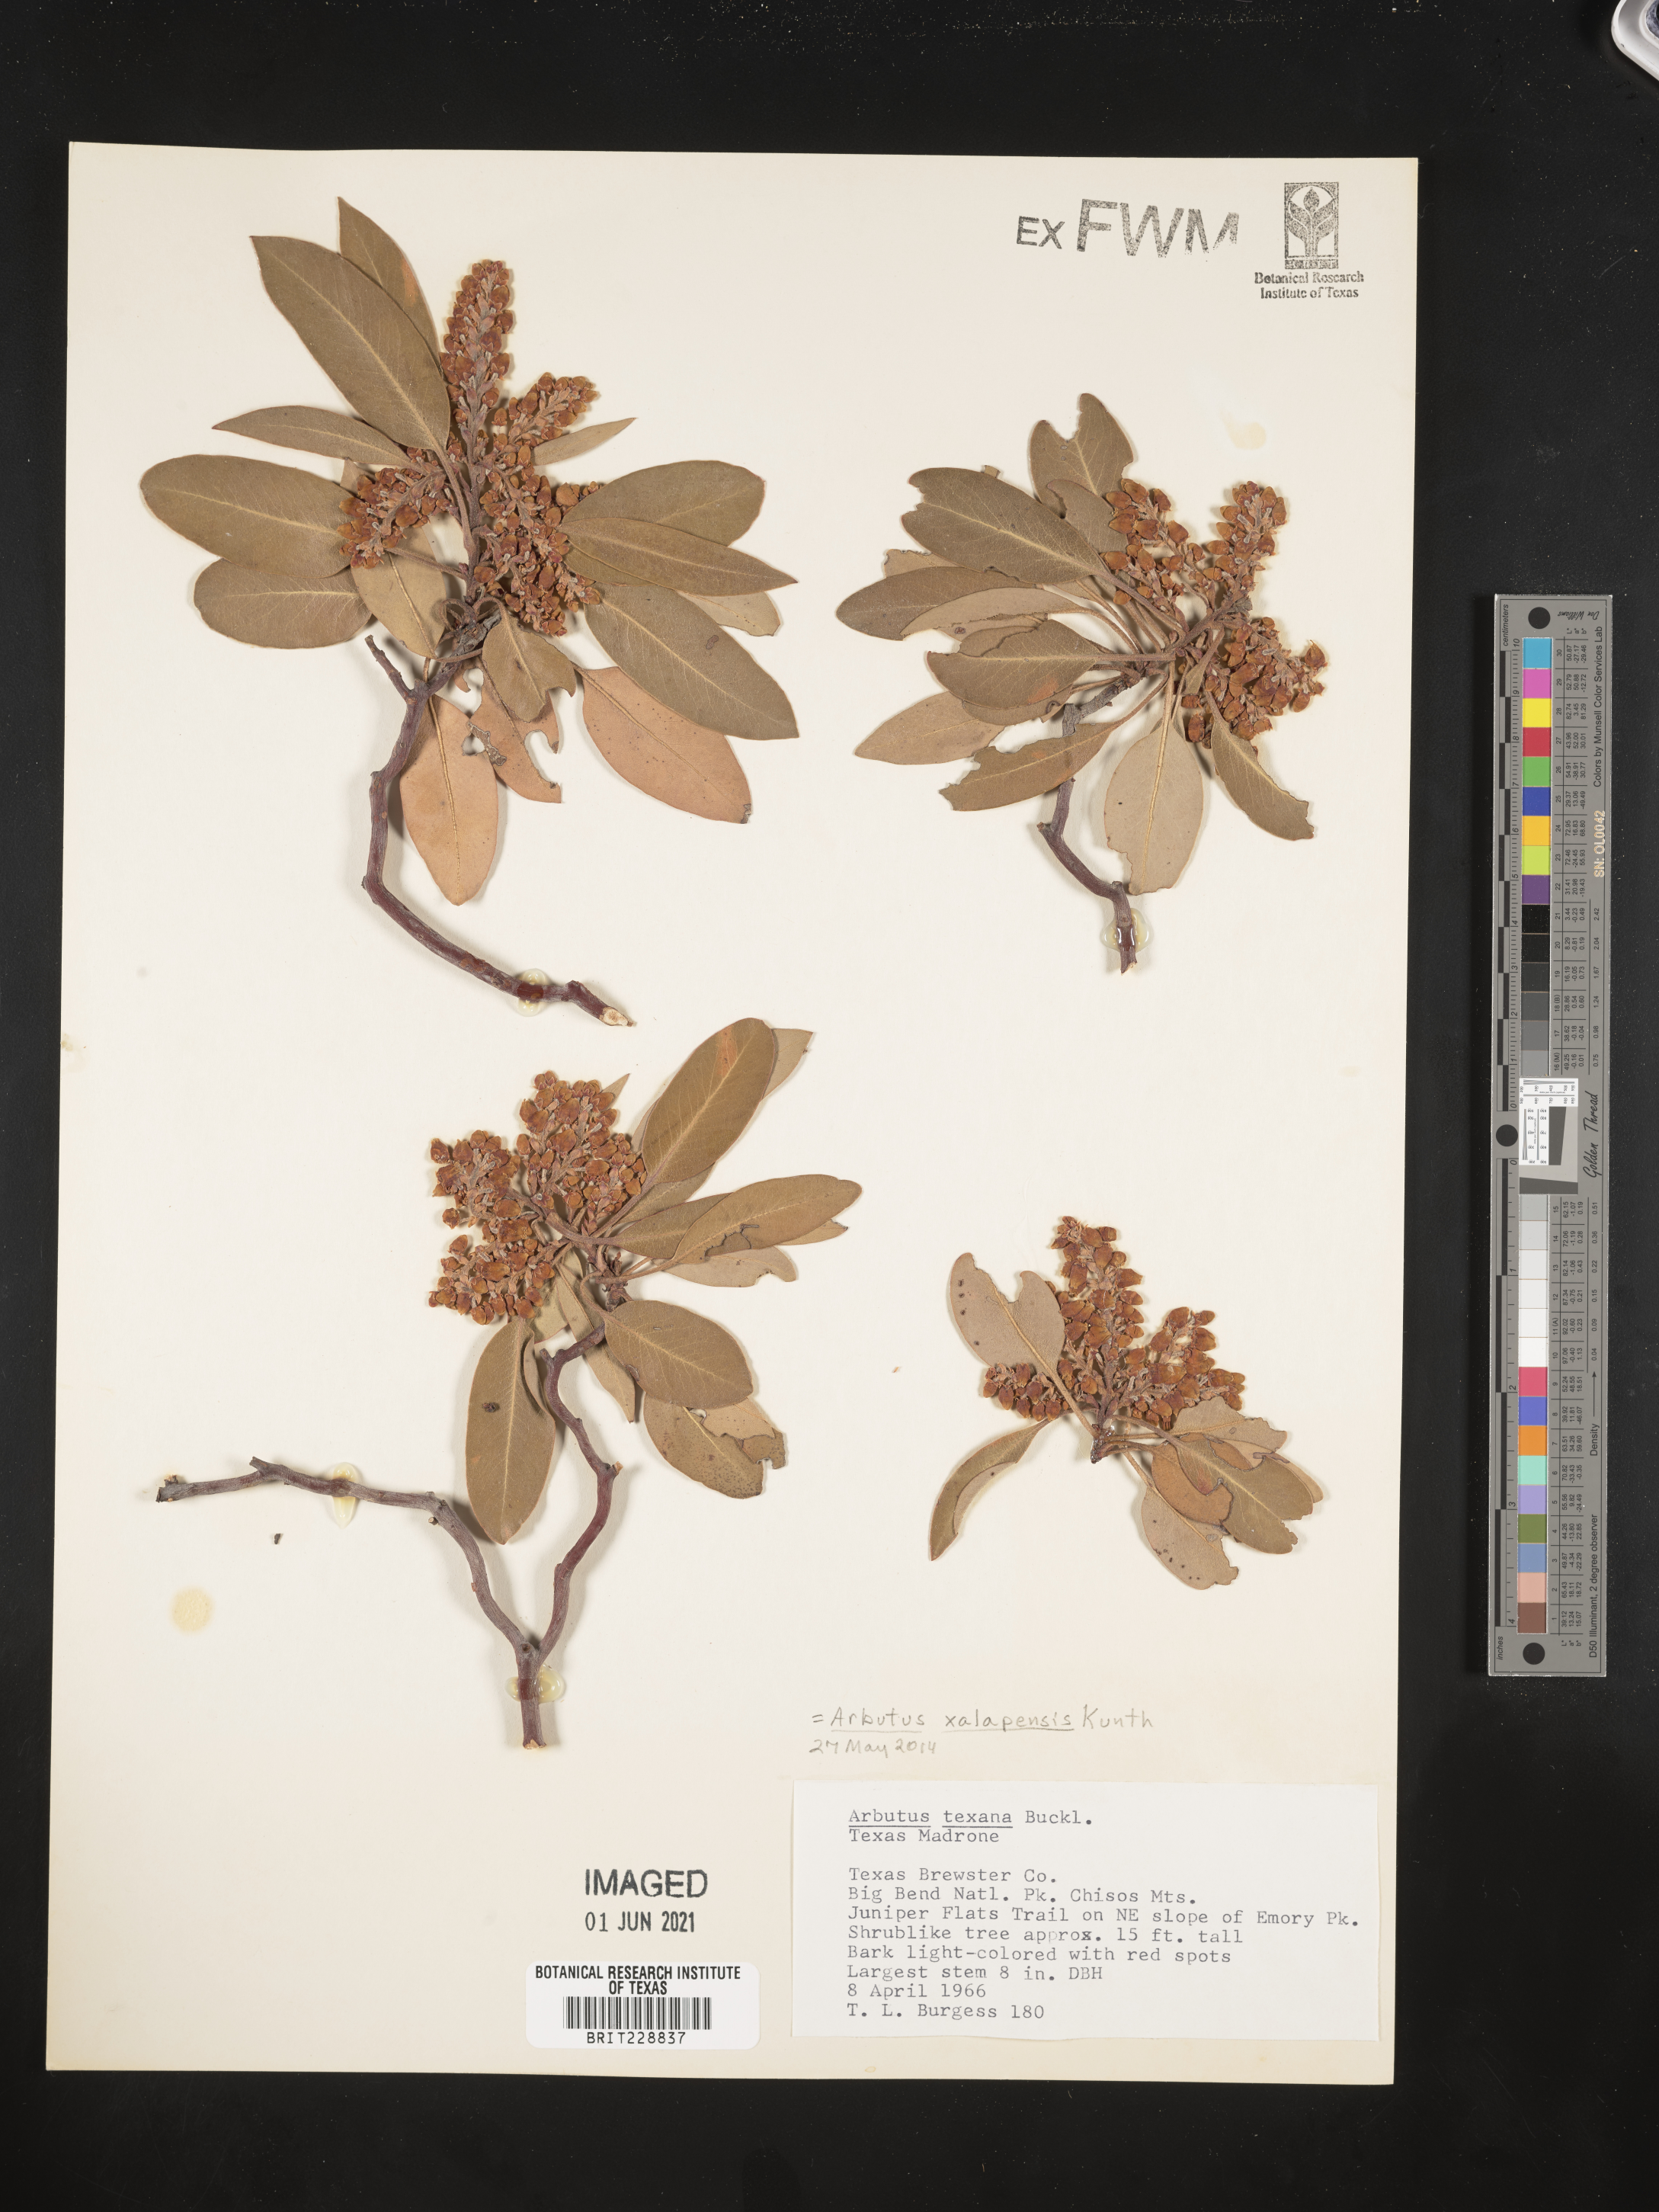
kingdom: Plantae
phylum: Tracheophyta
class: Magnoliopsida
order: Ericales
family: Ericaceae
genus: Arbutus
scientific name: Arbutus xalapensis
